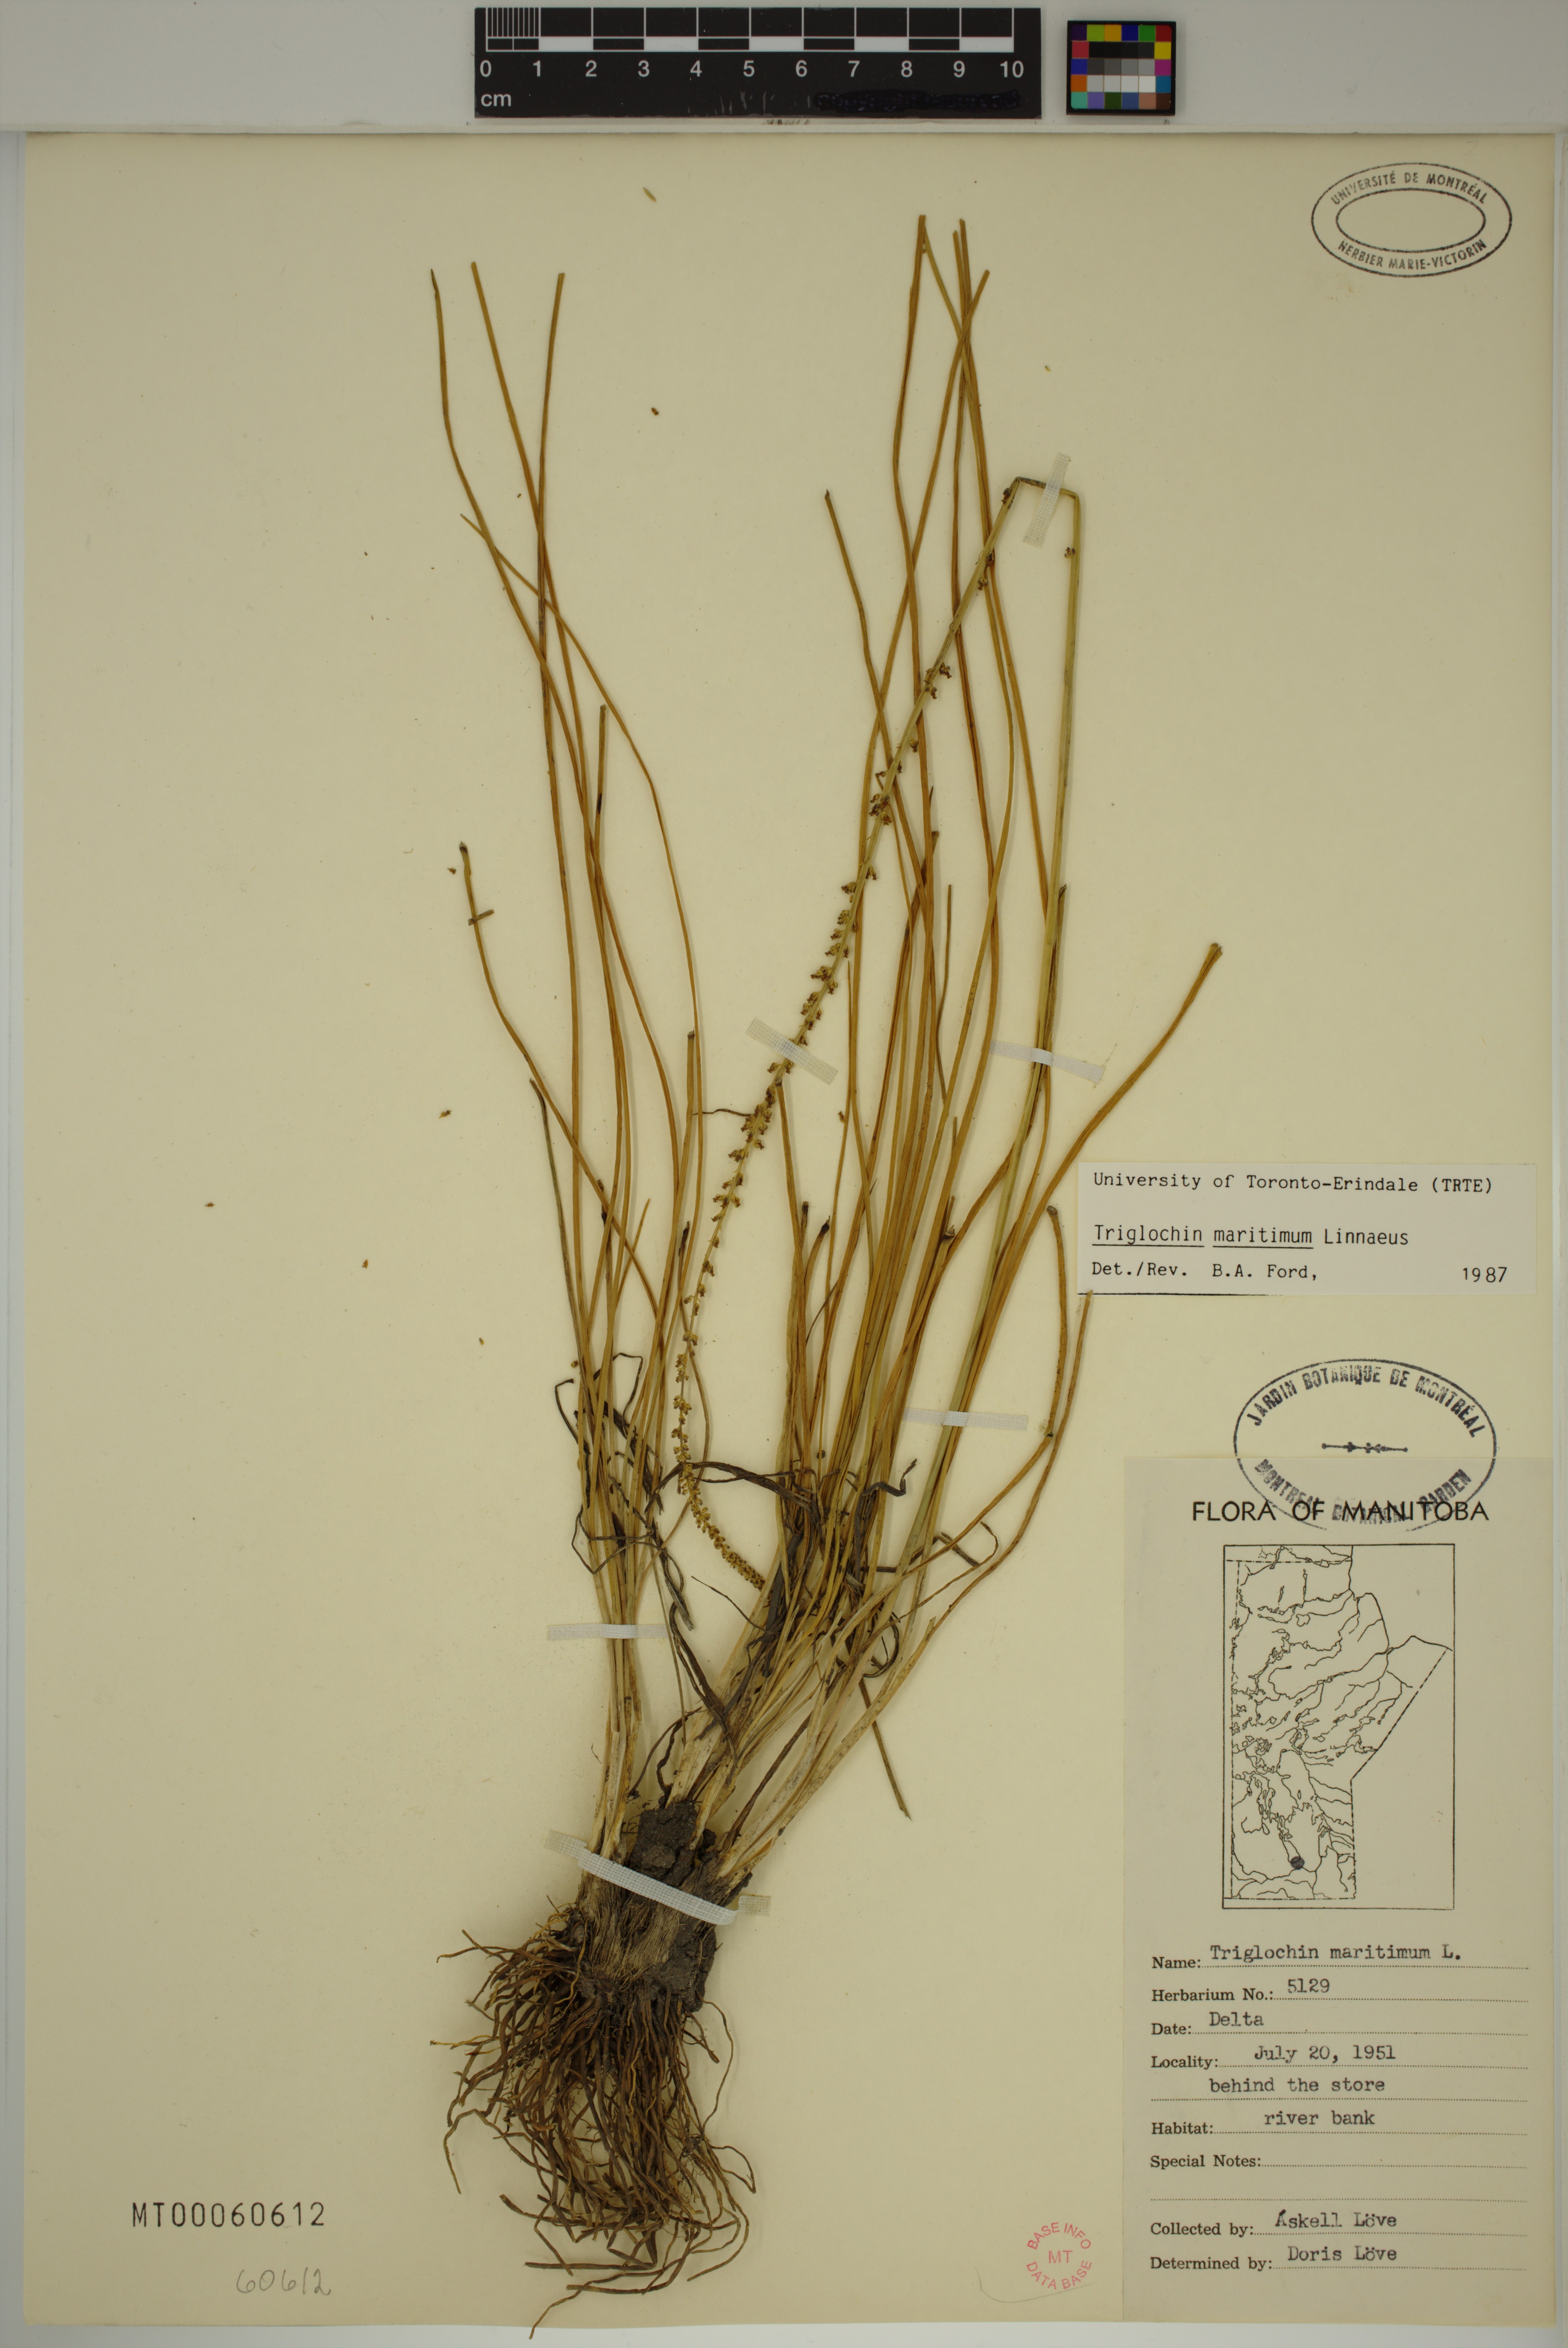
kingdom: Plantae
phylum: Tracheophyta
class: Liliopsida
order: Alismatales
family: Juncaginaceae
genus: Triglochin
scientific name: Triglochin maritima
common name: Sea arrowgrass
